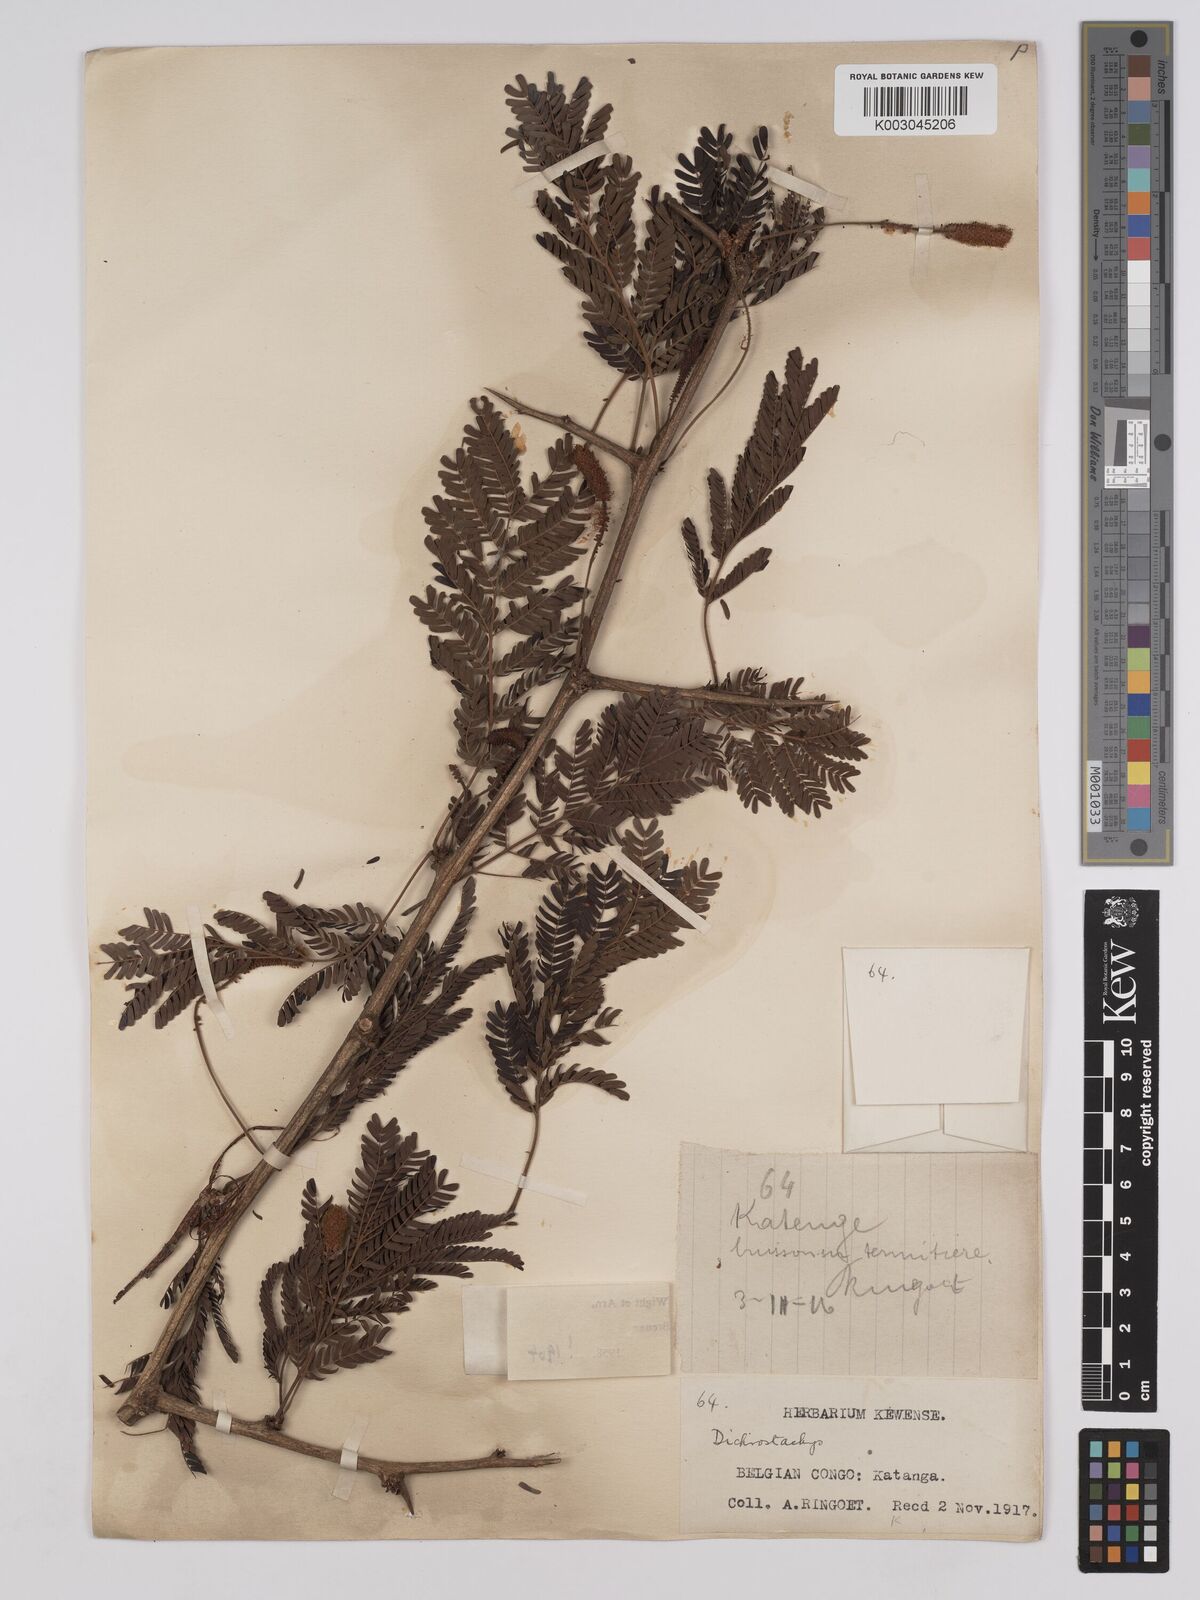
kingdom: Plantae
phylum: Tracheophyta
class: Magnoliopsida
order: Fabales
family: Fabaceae
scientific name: Fabaceae
